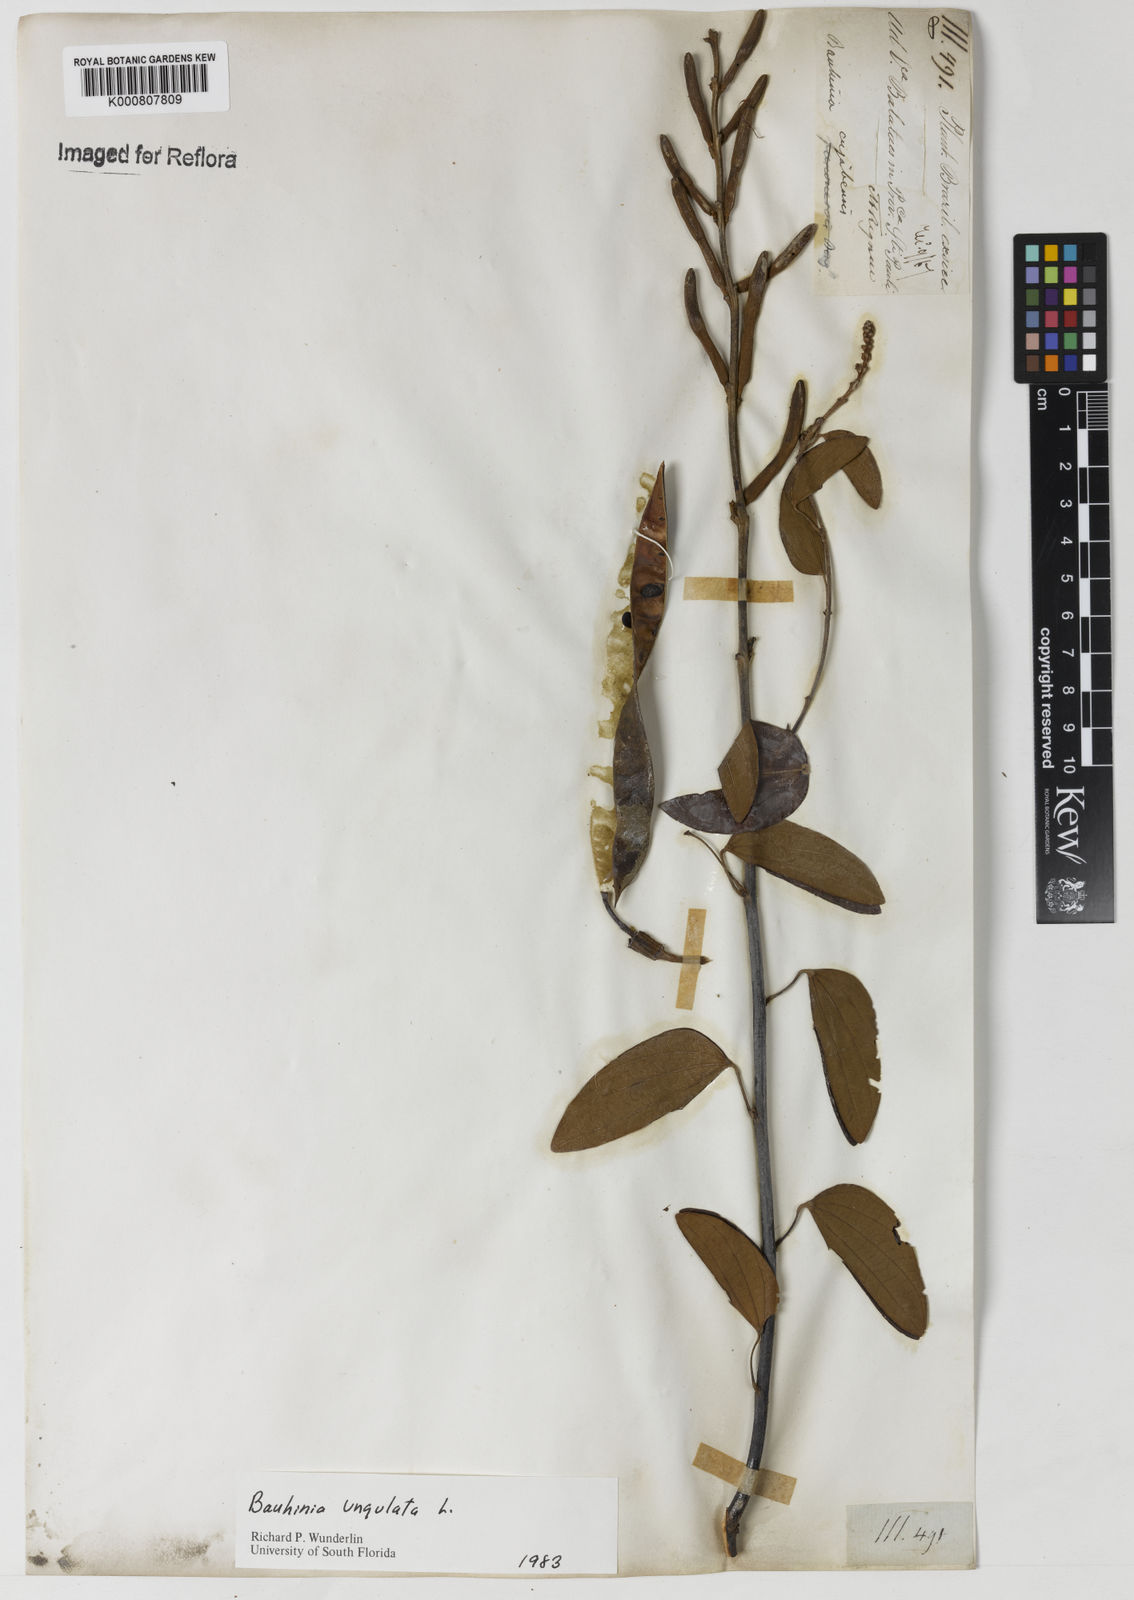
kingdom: Plantae
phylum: Tracheophyta
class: Magnoliopsida
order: Fabales
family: Fabaceae
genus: Bauhinia
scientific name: Bauhinia ungulata
